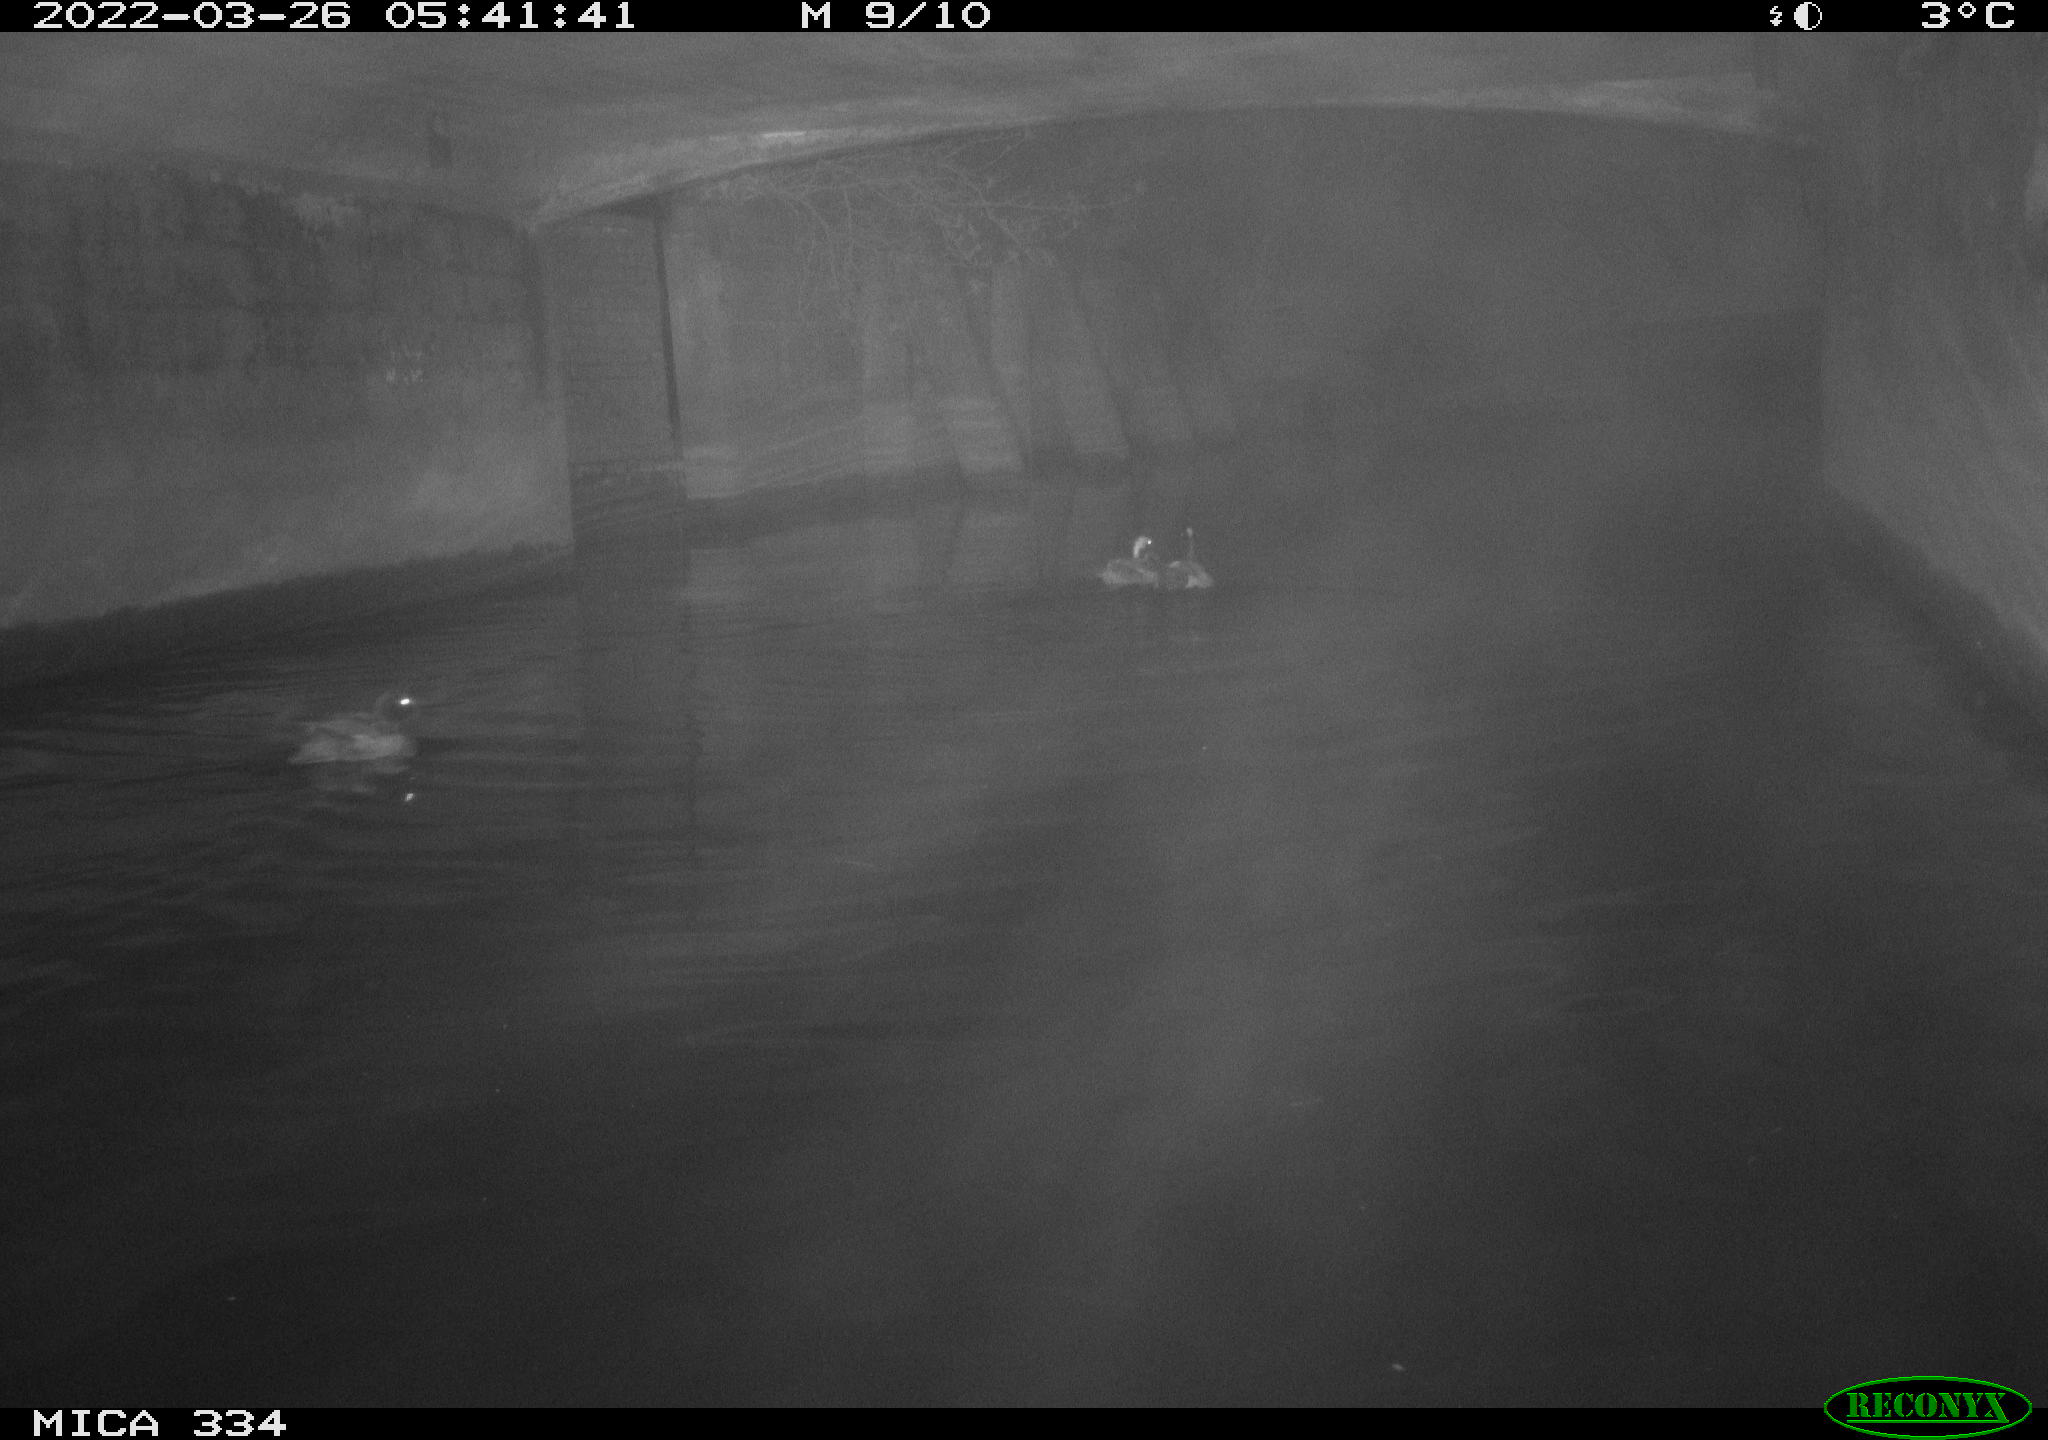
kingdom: Animalia
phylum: Chordata
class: Aves
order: Anseriformes
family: Anatidae
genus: Anas
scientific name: Anas platyrhynchos
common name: Mallard
